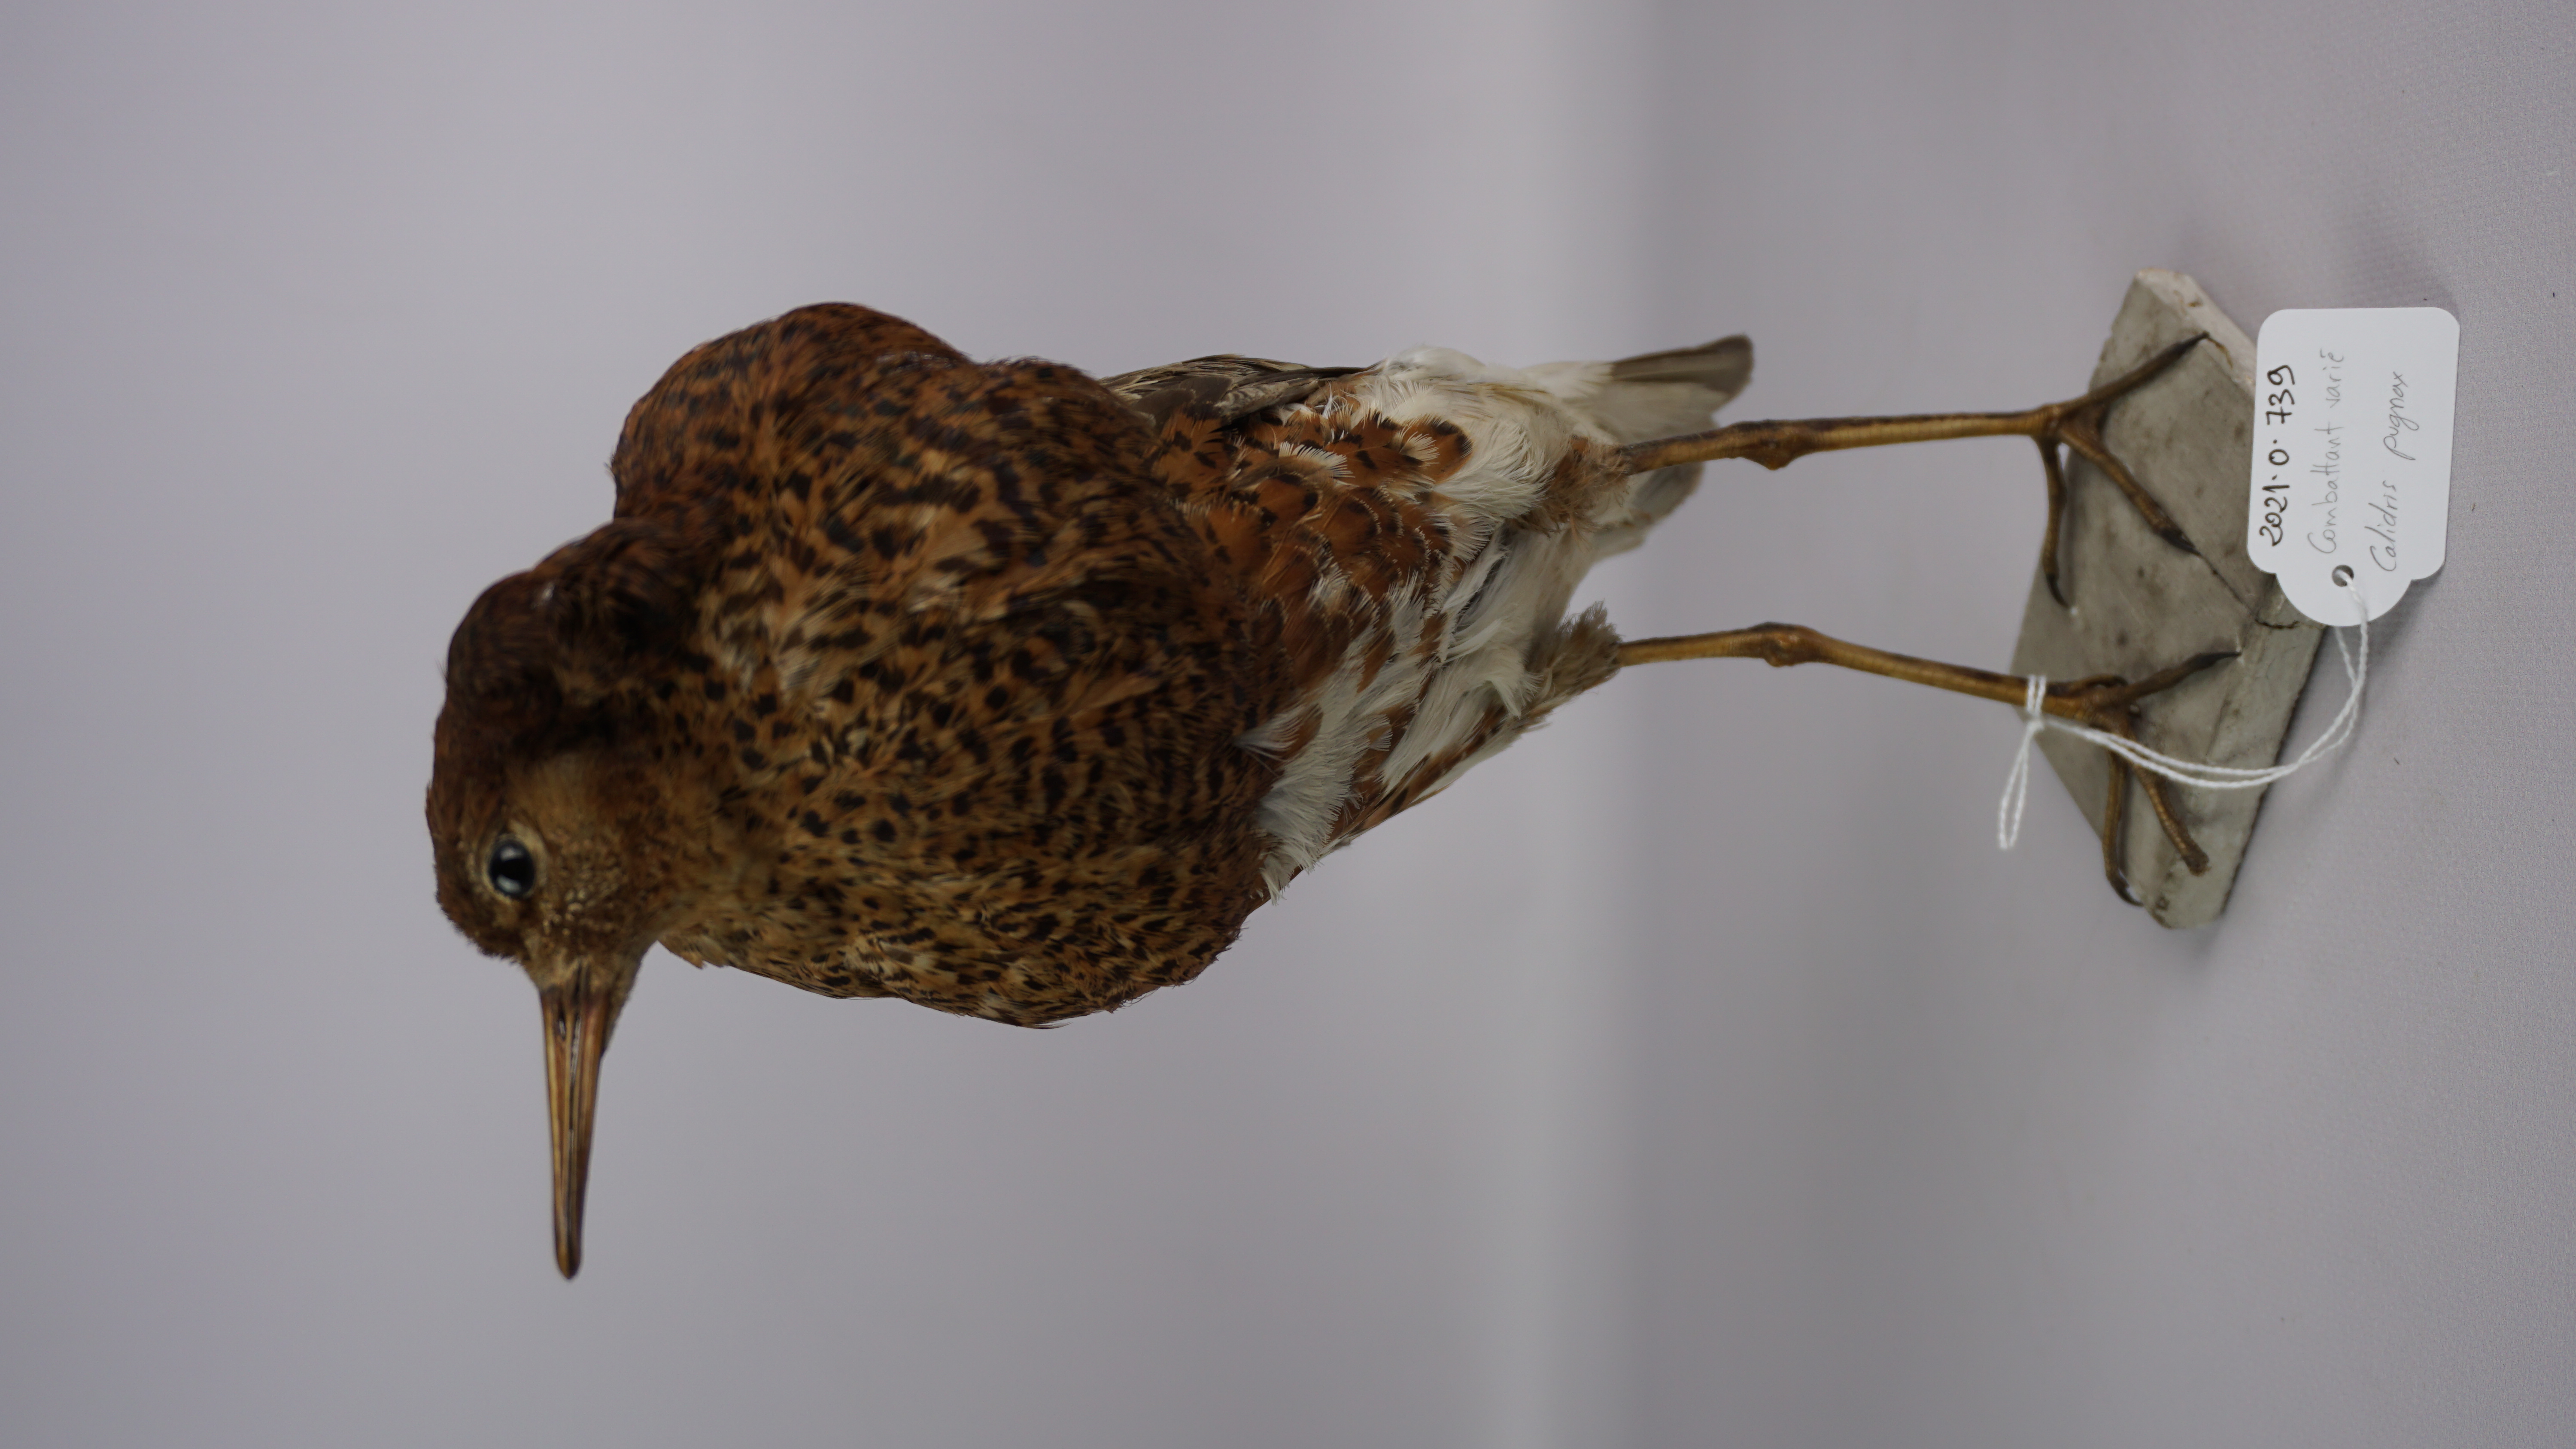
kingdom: Animalia
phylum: Chordata
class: Aves
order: Charadriiformes
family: Scolopacidae
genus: Calidris
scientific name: Calidris pugnax
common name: Ruff
